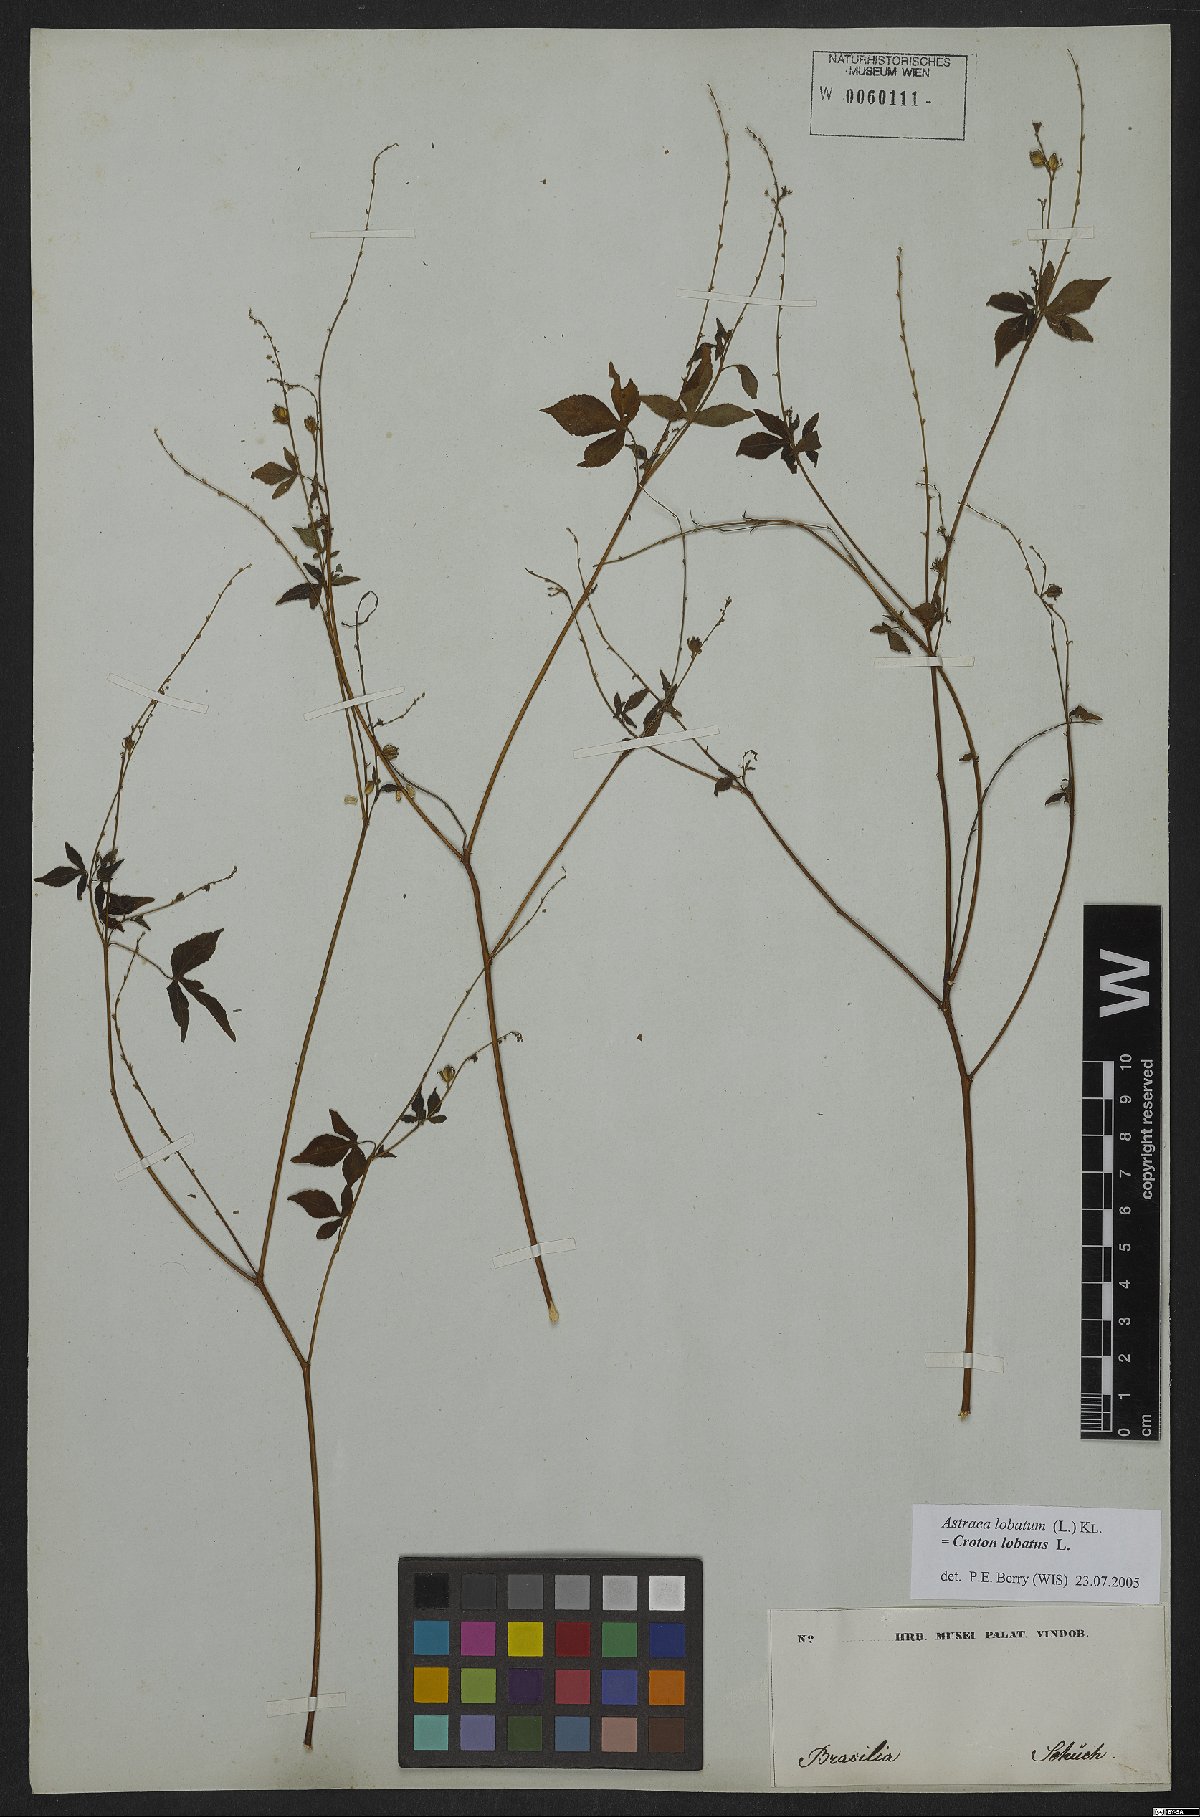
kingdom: Plantae
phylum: Tracheophyta
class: Magnoliopsida
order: Malpighiales
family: Euphorbiaceae
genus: Croton
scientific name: Croton lobatus
